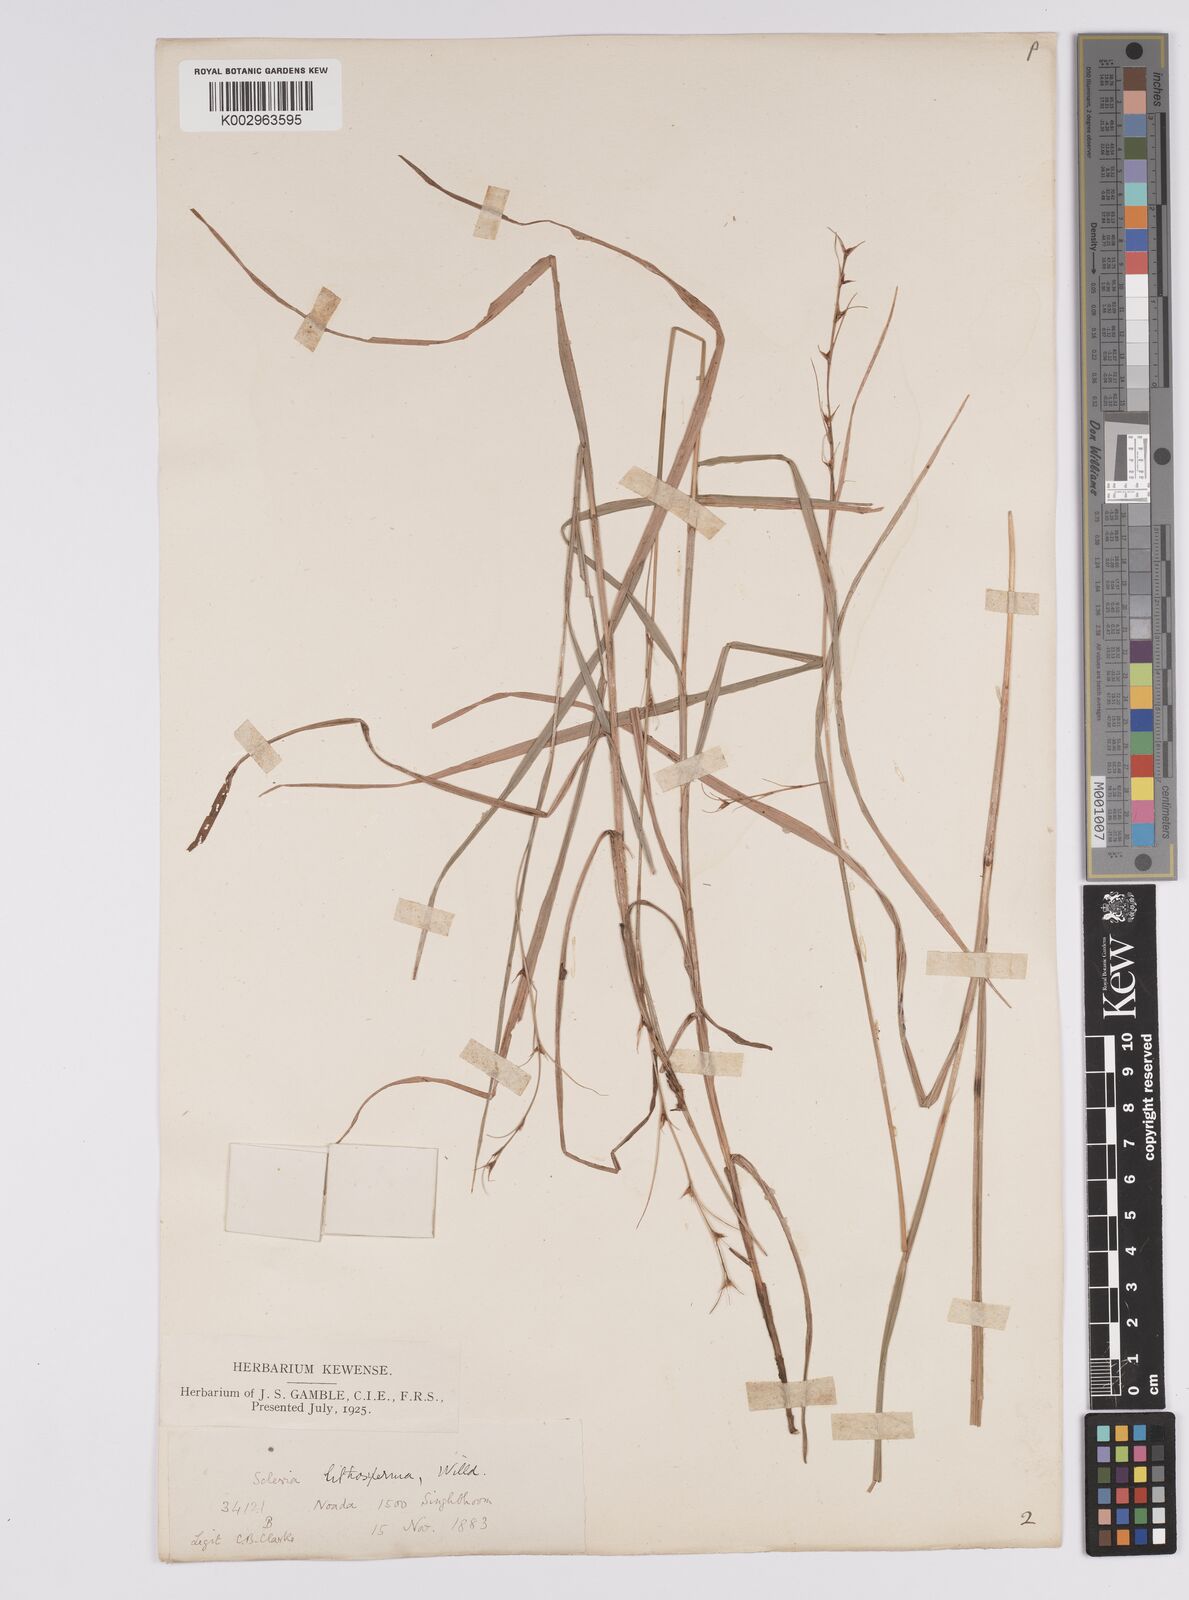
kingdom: Plantae
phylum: Tracheophyta
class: Liliopsida
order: Poales
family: Cyperaceae
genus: Scleria
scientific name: Scleria lithosperma
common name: Florida keys nut-rush
